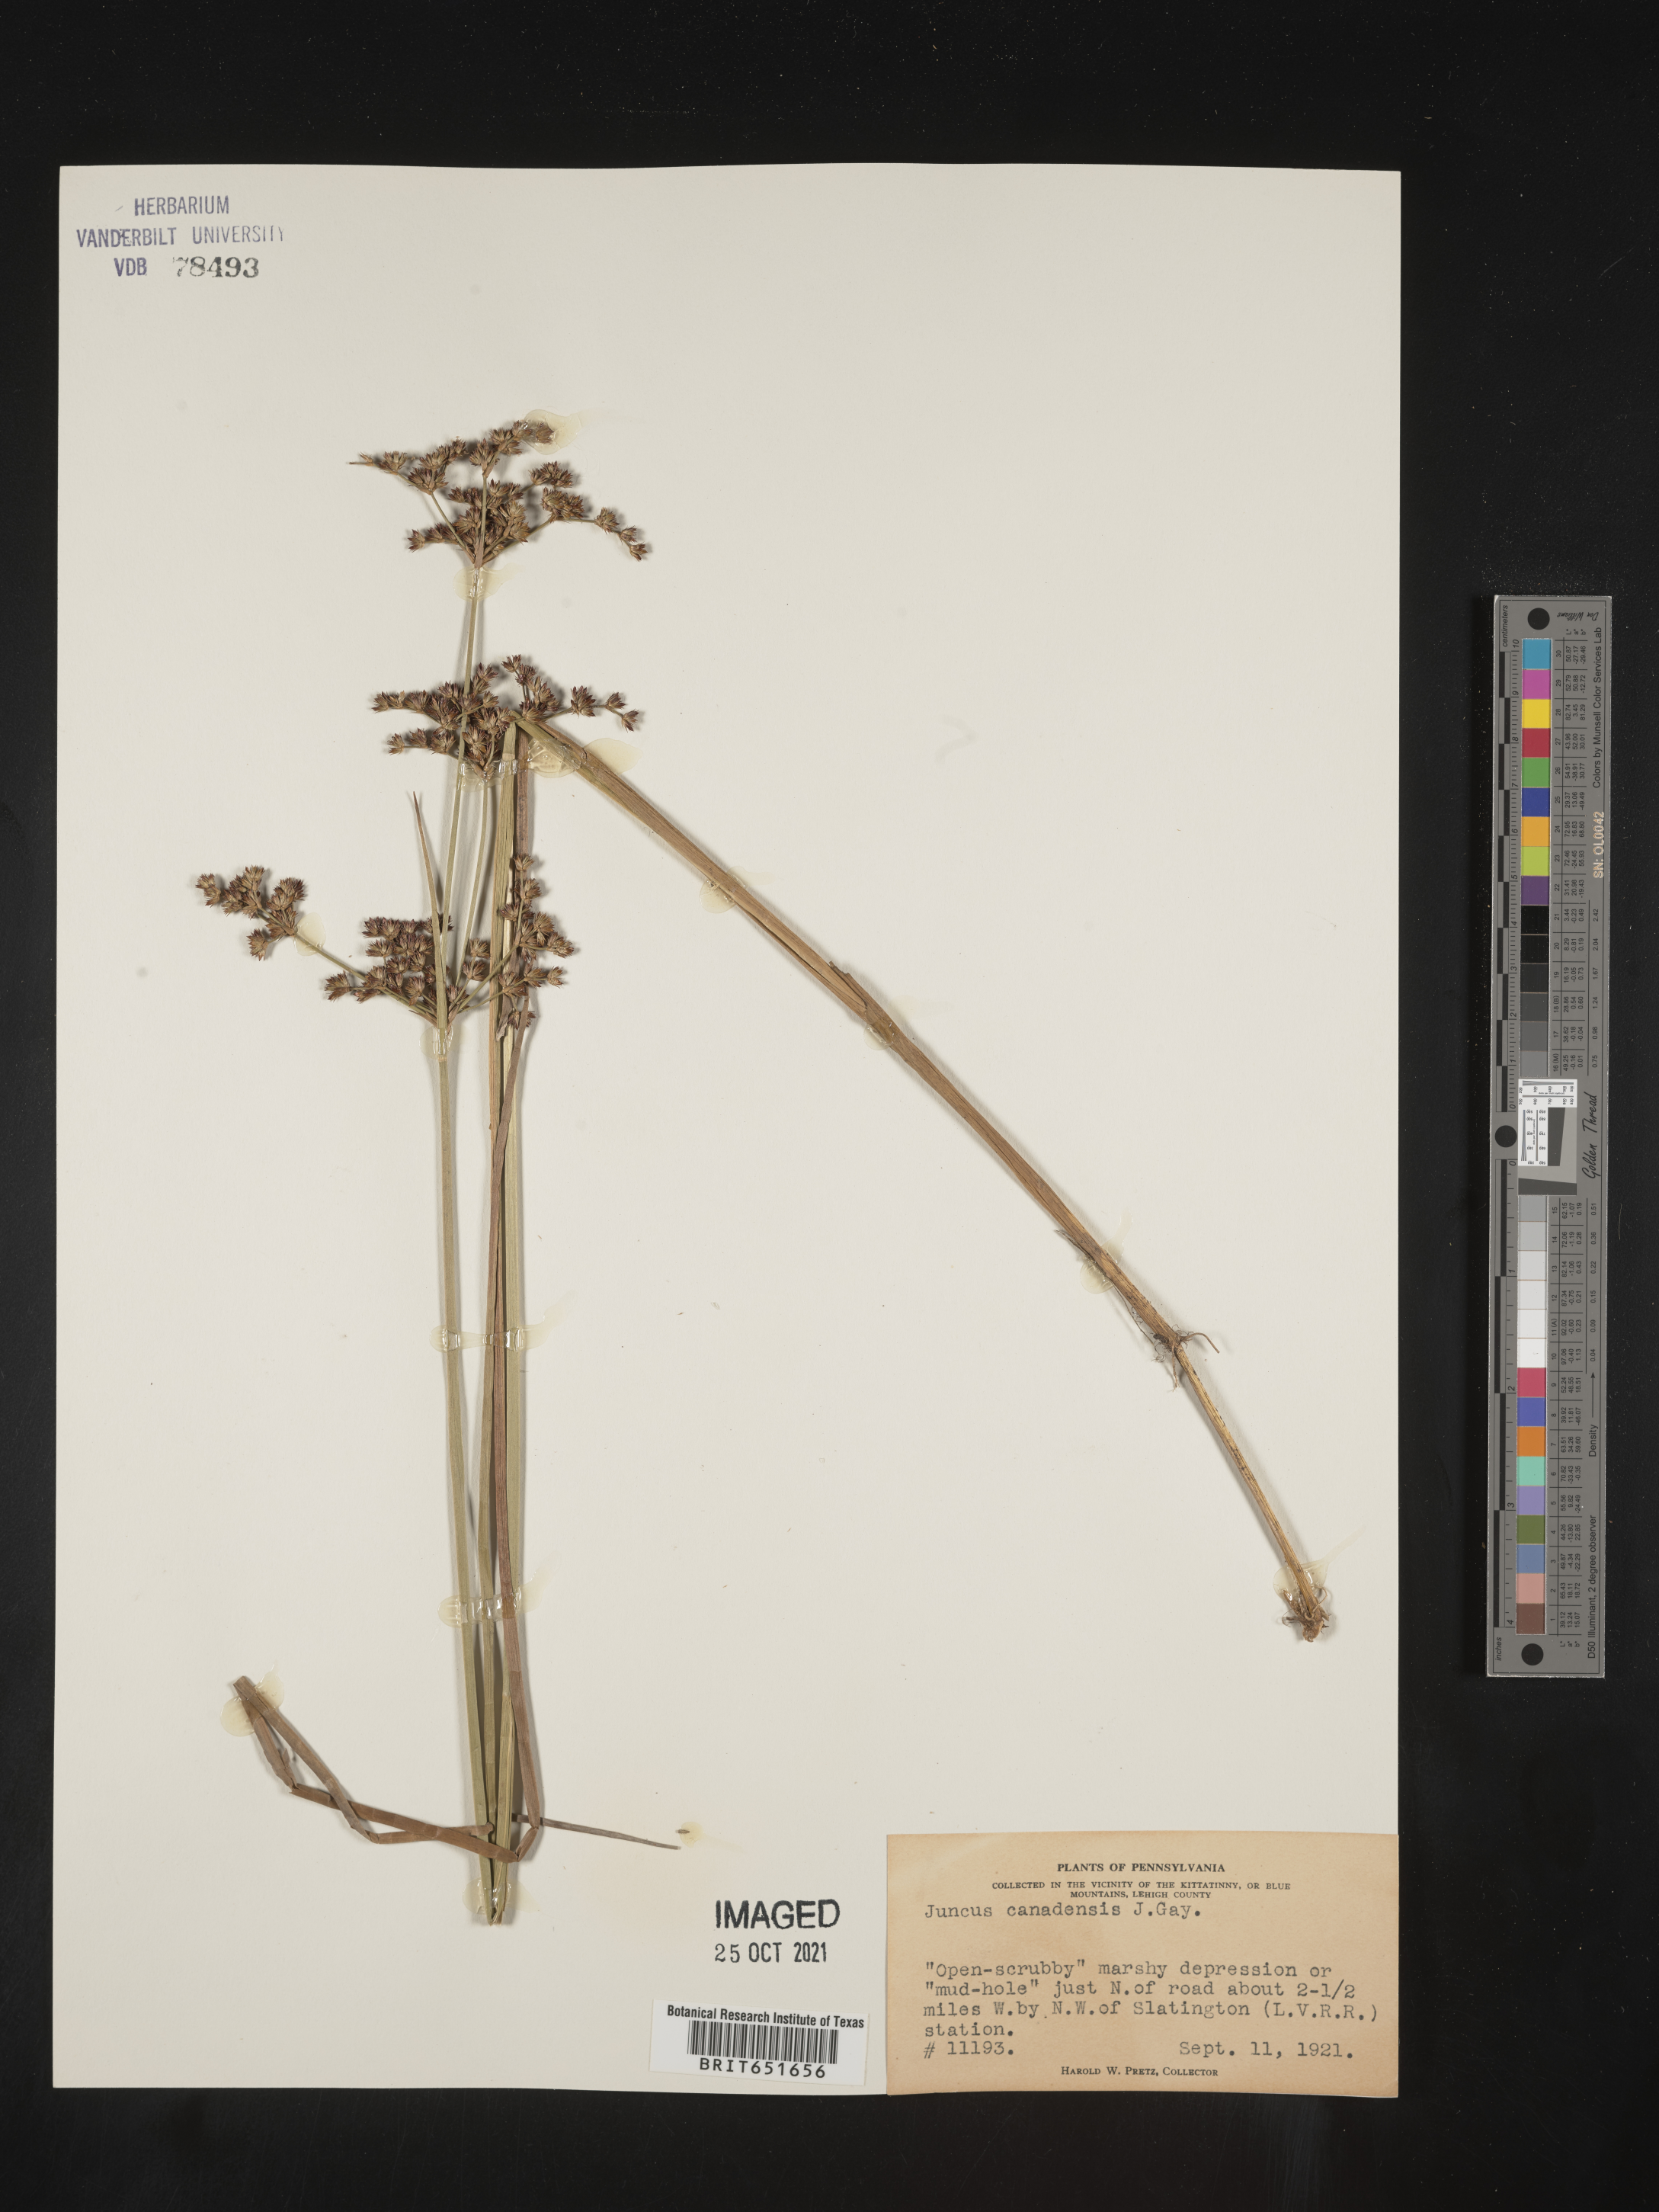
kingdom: Plantae
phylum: Tracheophyta
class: Liliopsida
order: Poales
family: Juncaceae
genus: Juncus
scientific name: Juncus canadensis
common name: Canada rush
